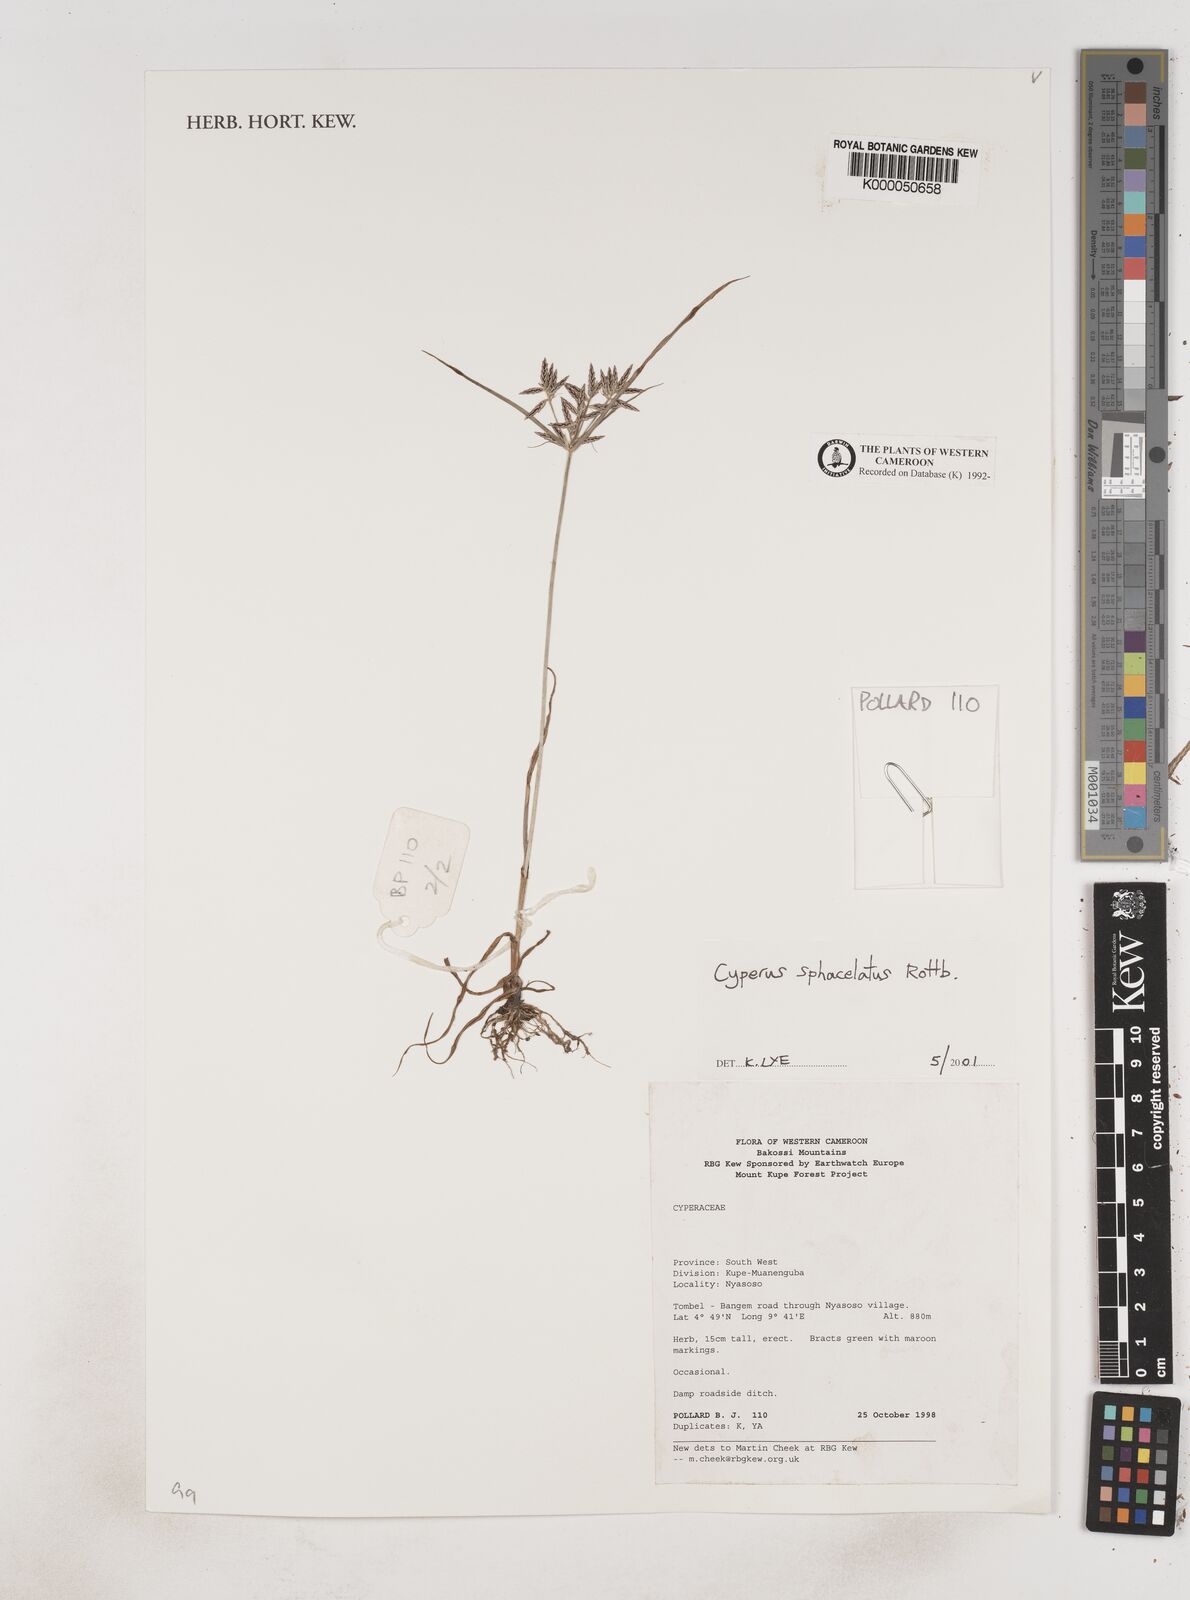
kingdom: Plantae
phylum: Tracheophyta
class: Liliopsida
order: Poales
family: Cyperaceae
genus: Cyperus
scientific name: Cyperus sphacelatus
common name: Roadside flatsedge
